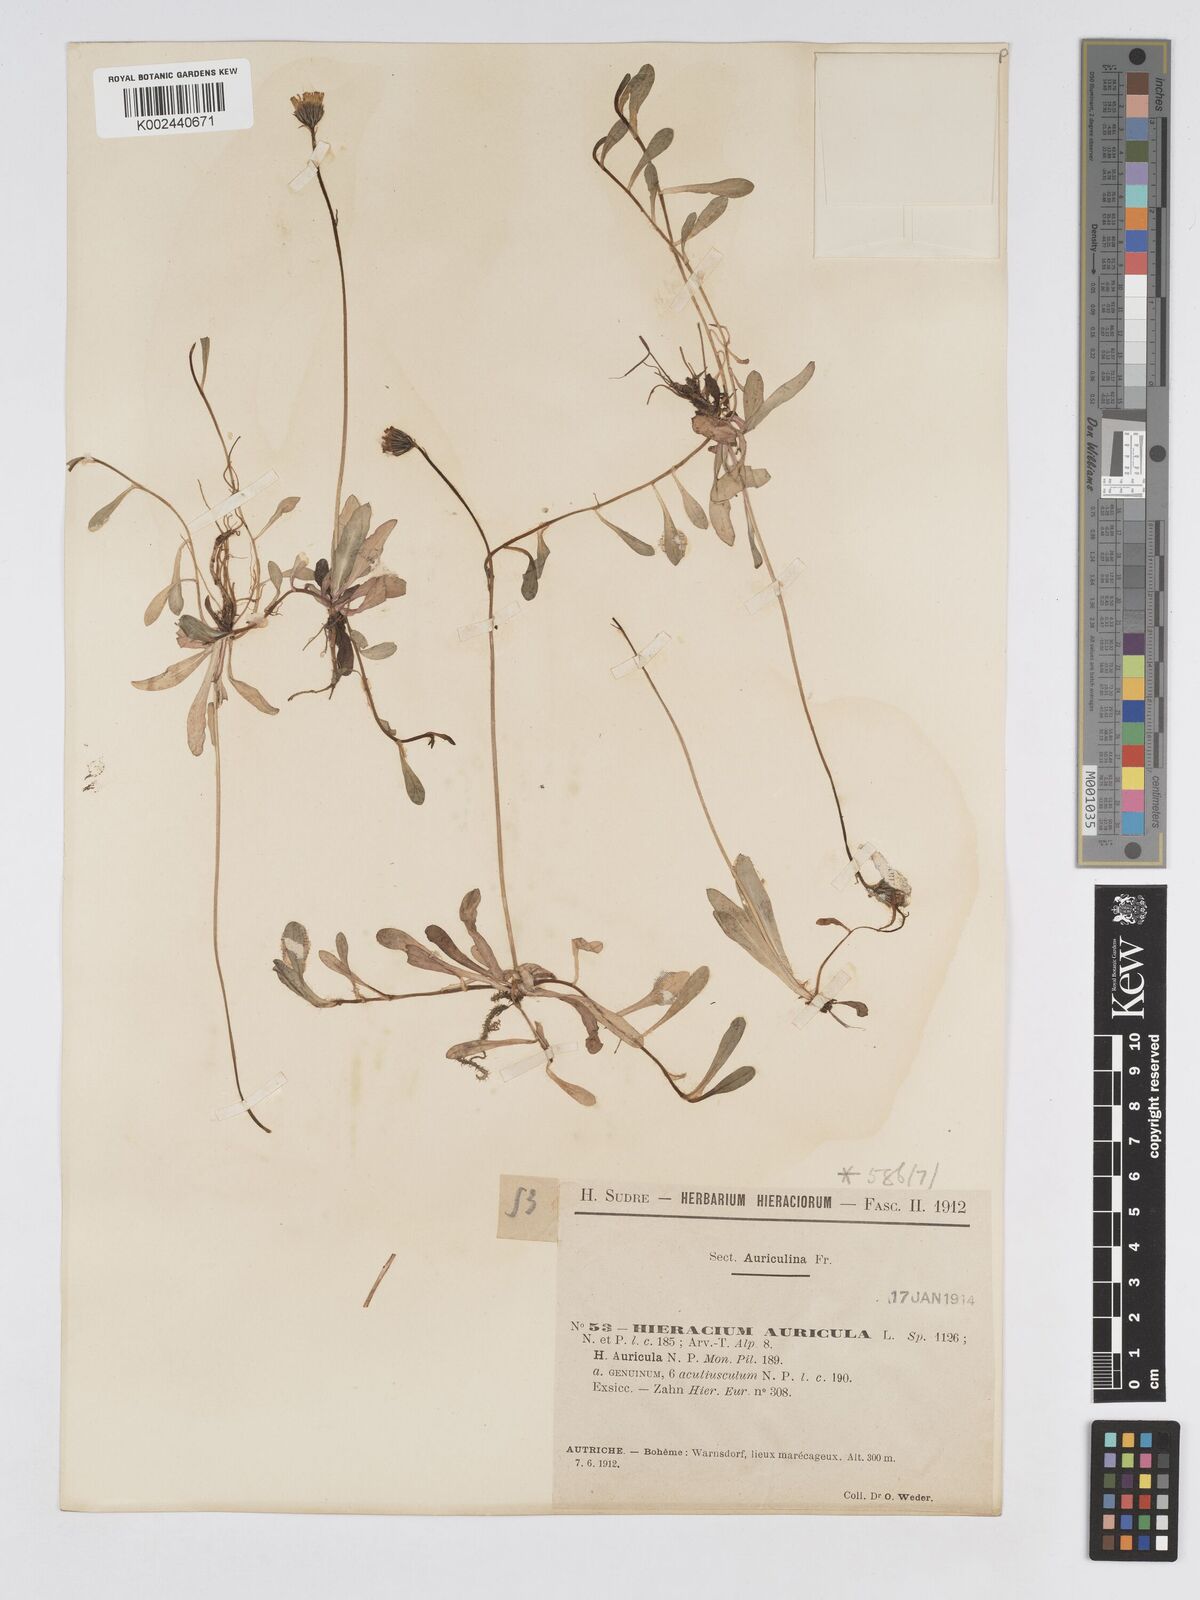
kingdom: Plantae
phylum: Tracheophyta
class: Magnoliopsida
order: Asterales
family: Asteraceae
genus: Pilosella
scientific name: Pilosella floribunda
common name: Glaucous hawkweed
